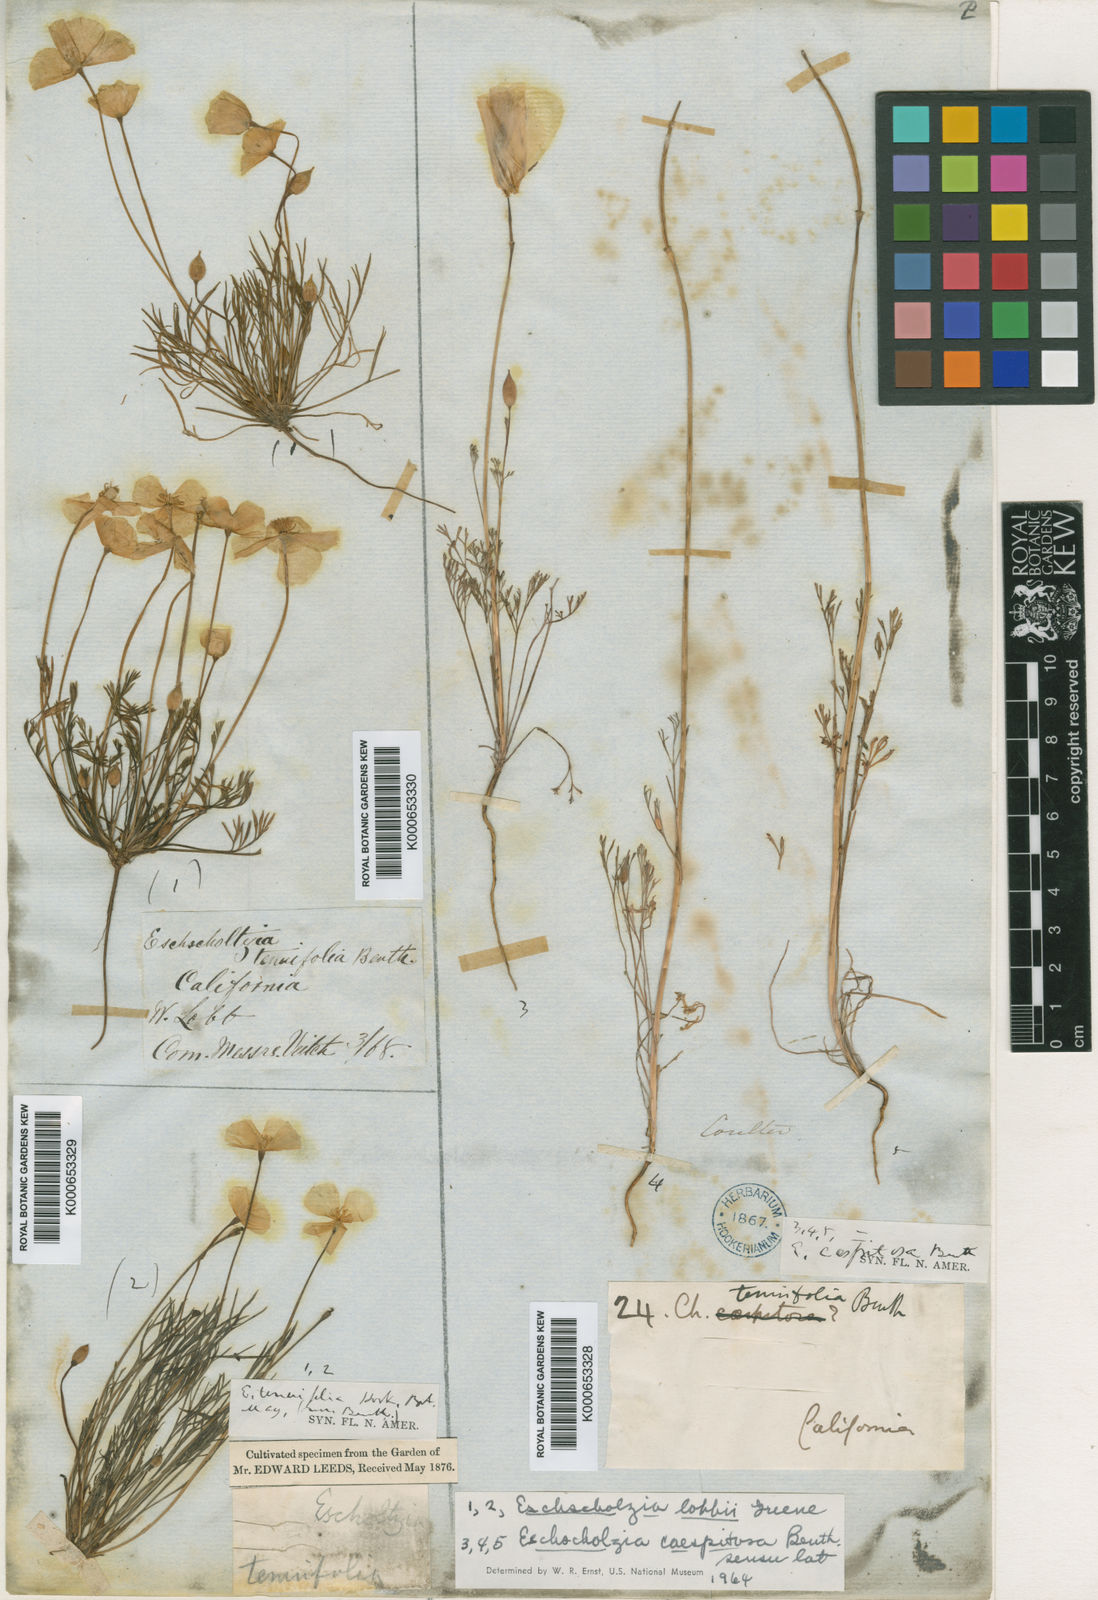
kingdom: Plantae
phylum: Tracheophyta
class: Magnoliopsida
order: Ranunculales
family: Papaveraceae
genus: Eschscholzia
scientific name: Eschscholzia caespitosa
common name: Tufted california-poppy
